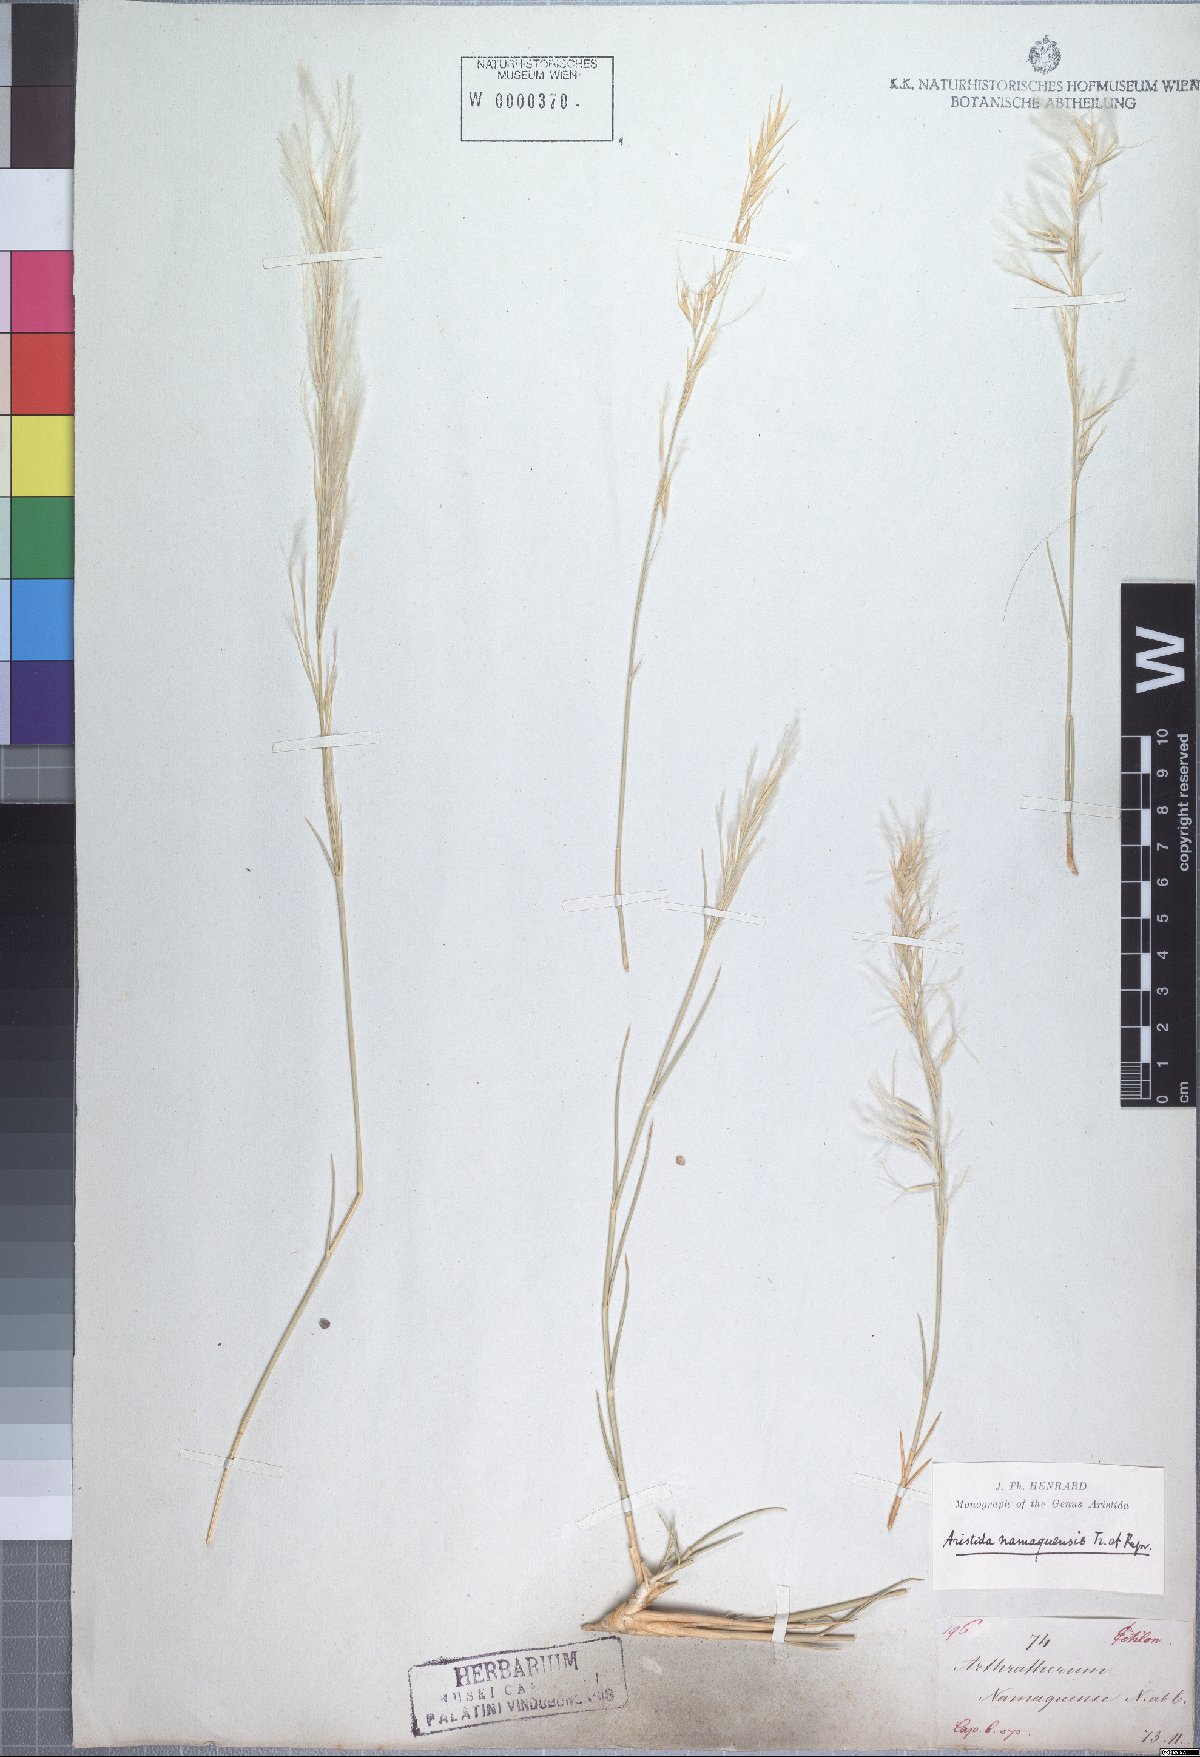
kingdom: Plantae
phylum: Tracheophyta
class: Liliopsida
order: Poales
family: Poaceae
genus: Stipagrostis
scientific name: Stipagrostis namaquensis
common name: River bushman grass
